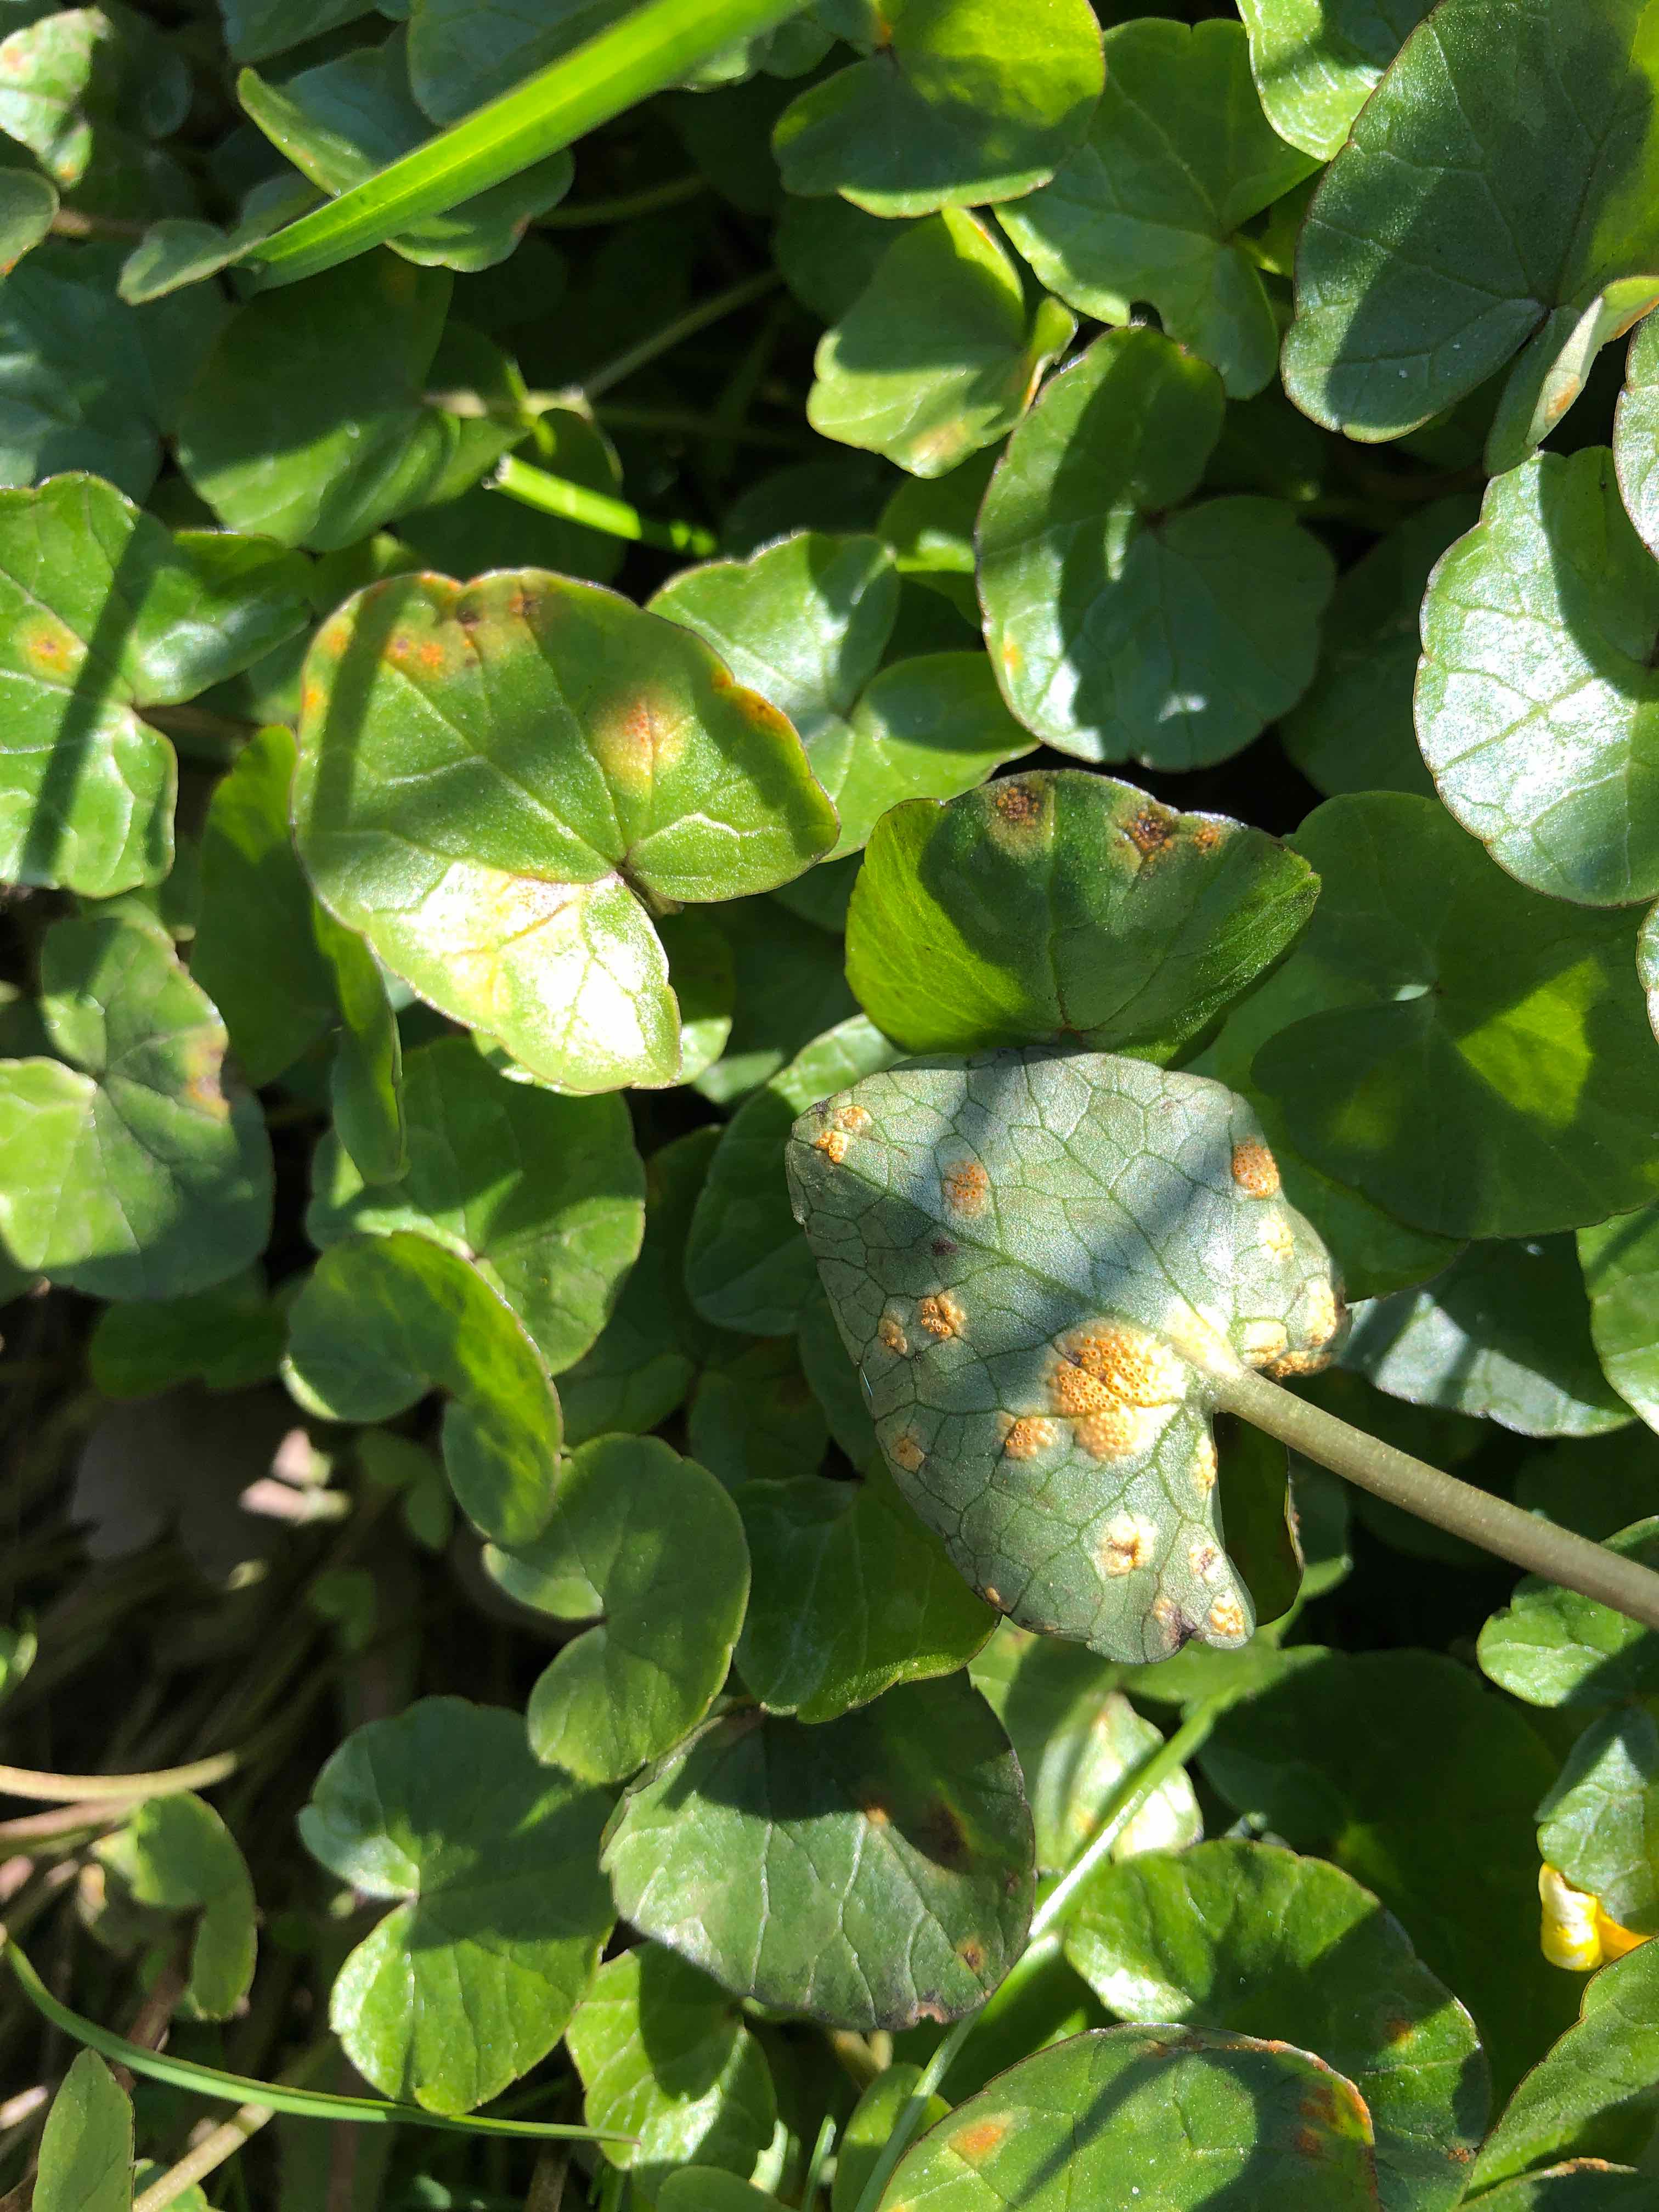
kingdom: Fungi
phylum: Basidiomycota
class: Pucciniomycetes
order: Pucciniales
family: Pucciniaceae
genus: Uromyces
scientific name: Uromyces dactylidis
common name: ranunkel-encellerust
